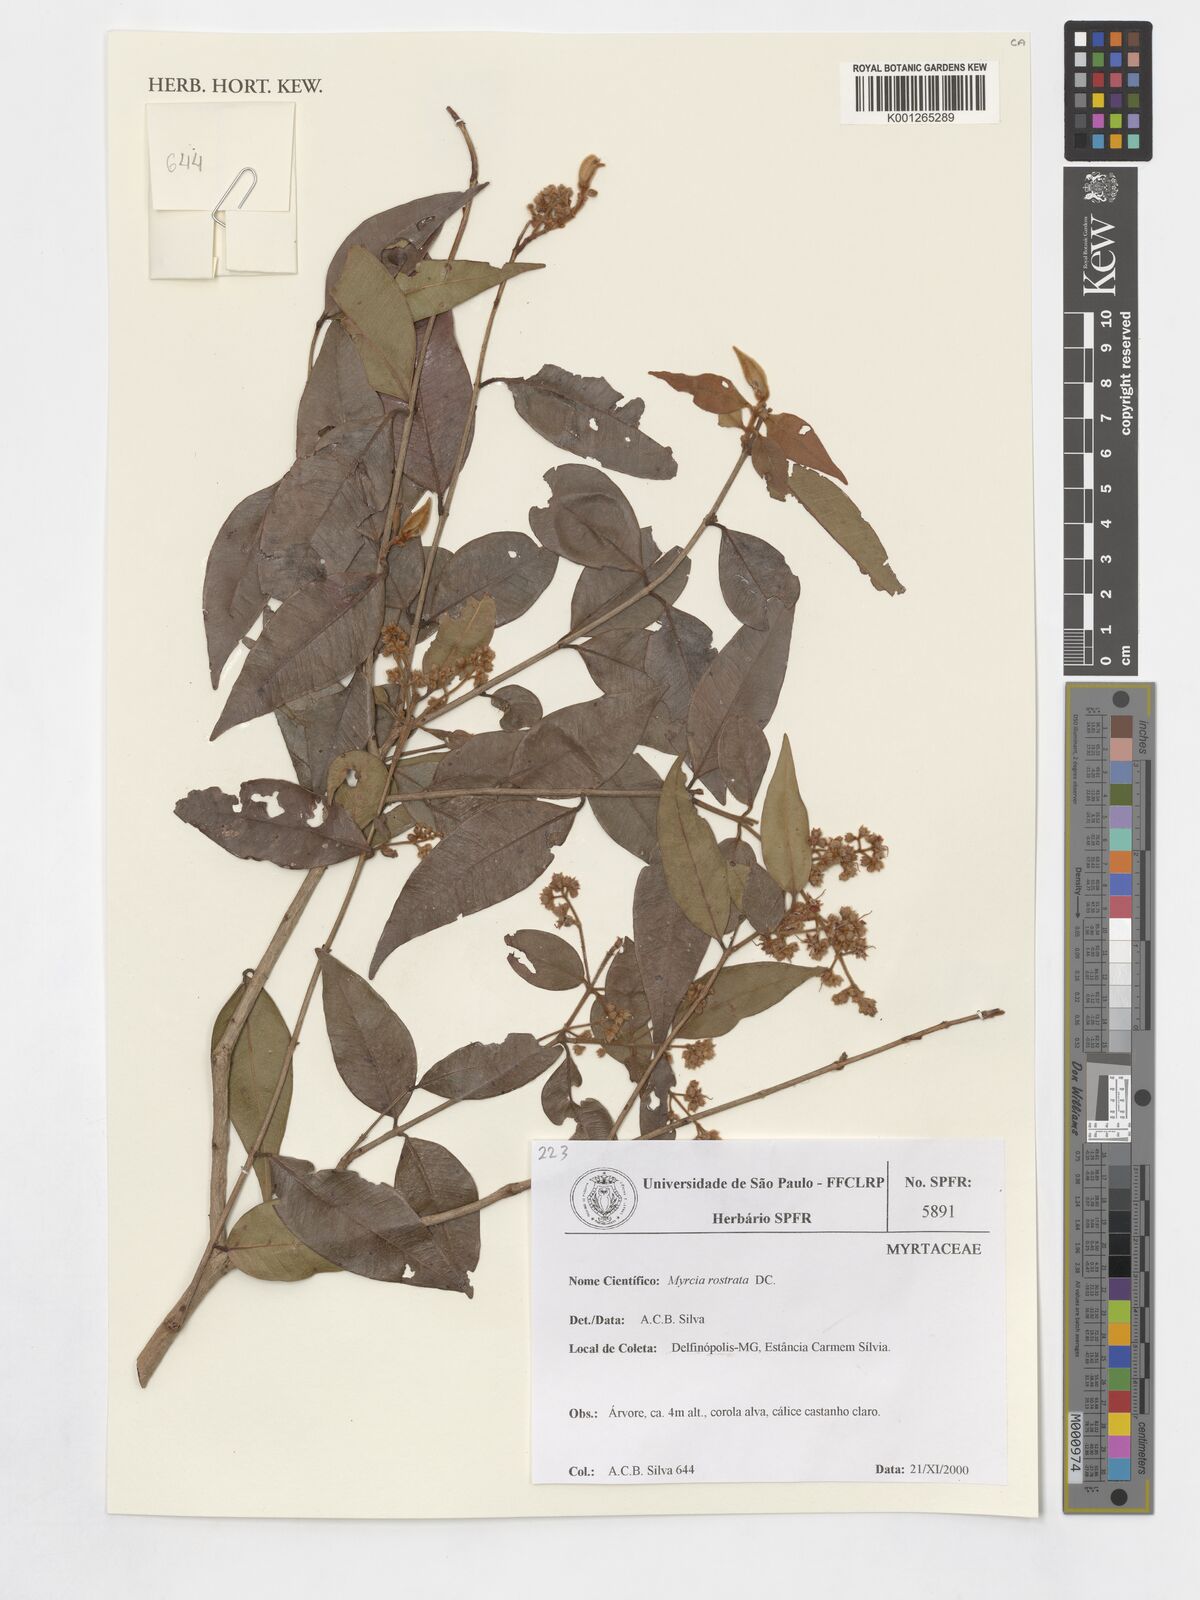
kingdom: Plantae
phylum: Tracheophyta
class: Magnoliopsida
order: Myrtales
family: Myrtaceae
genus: Myrcia
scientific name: Myrcia splendens
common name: Surinam cherry
